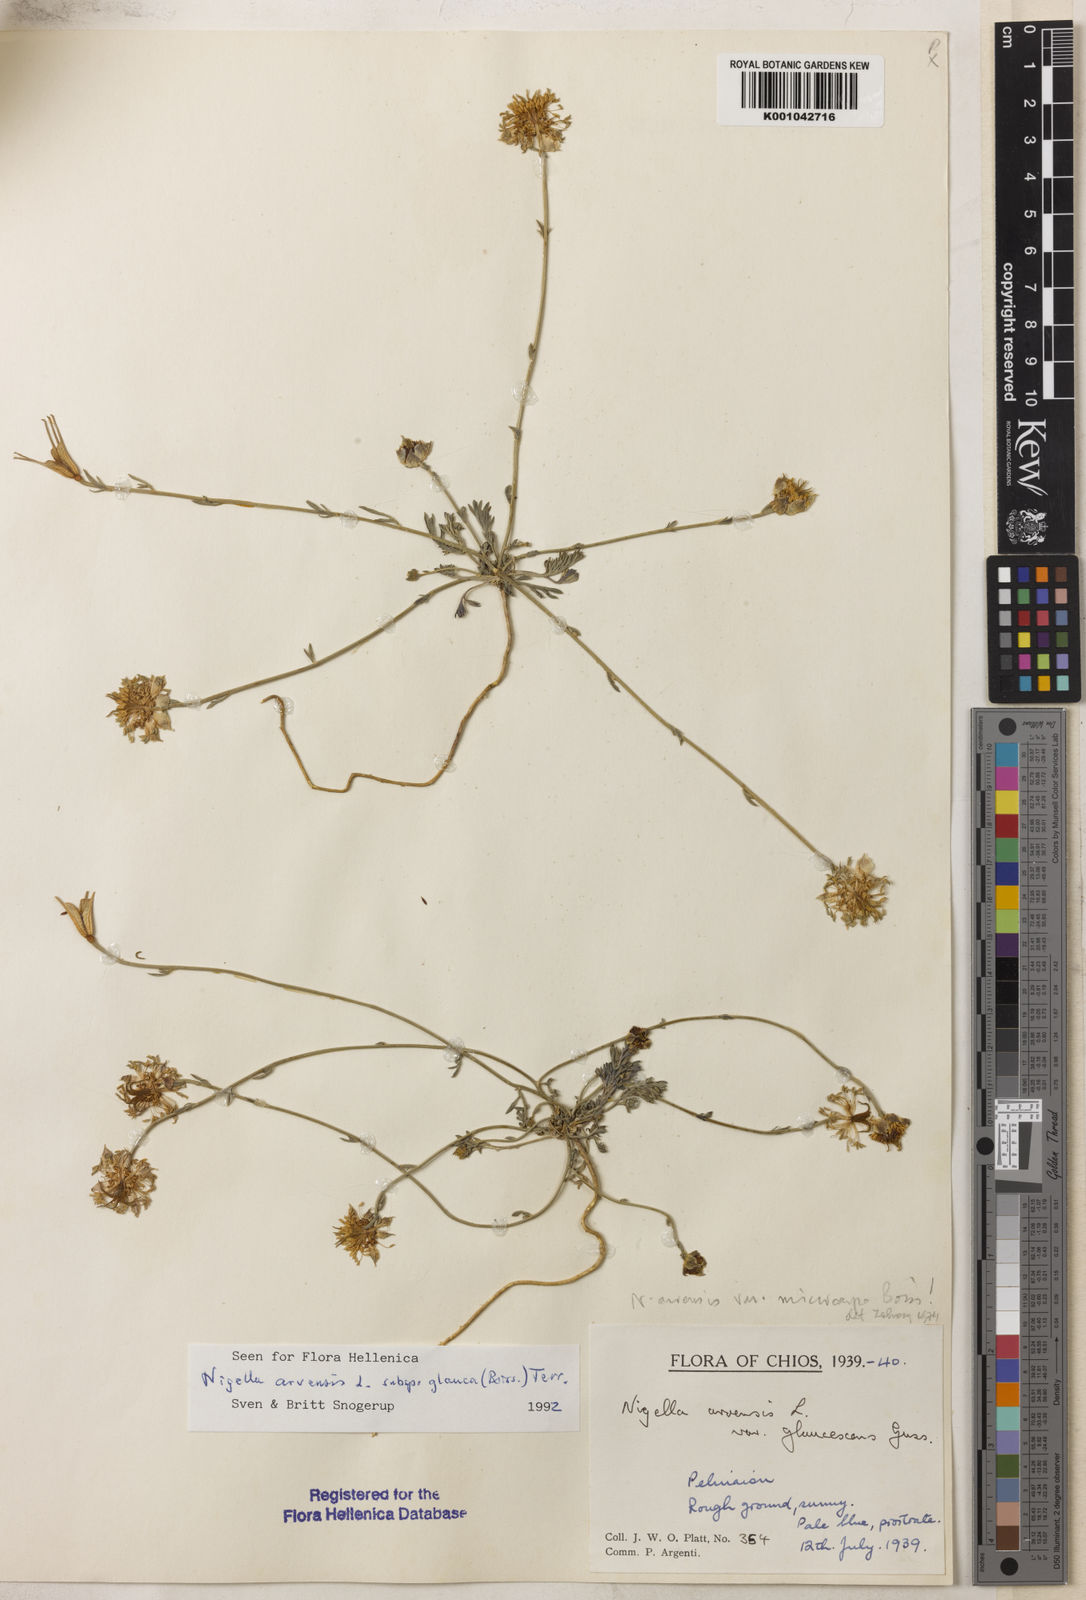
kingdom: Plantae
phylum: Tracheophyta
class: Magnoliopsida
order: Ranunculales
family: Ranunculaceae
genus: Nigella
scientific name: Nigella arvensis
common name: Wild fennel-flower
